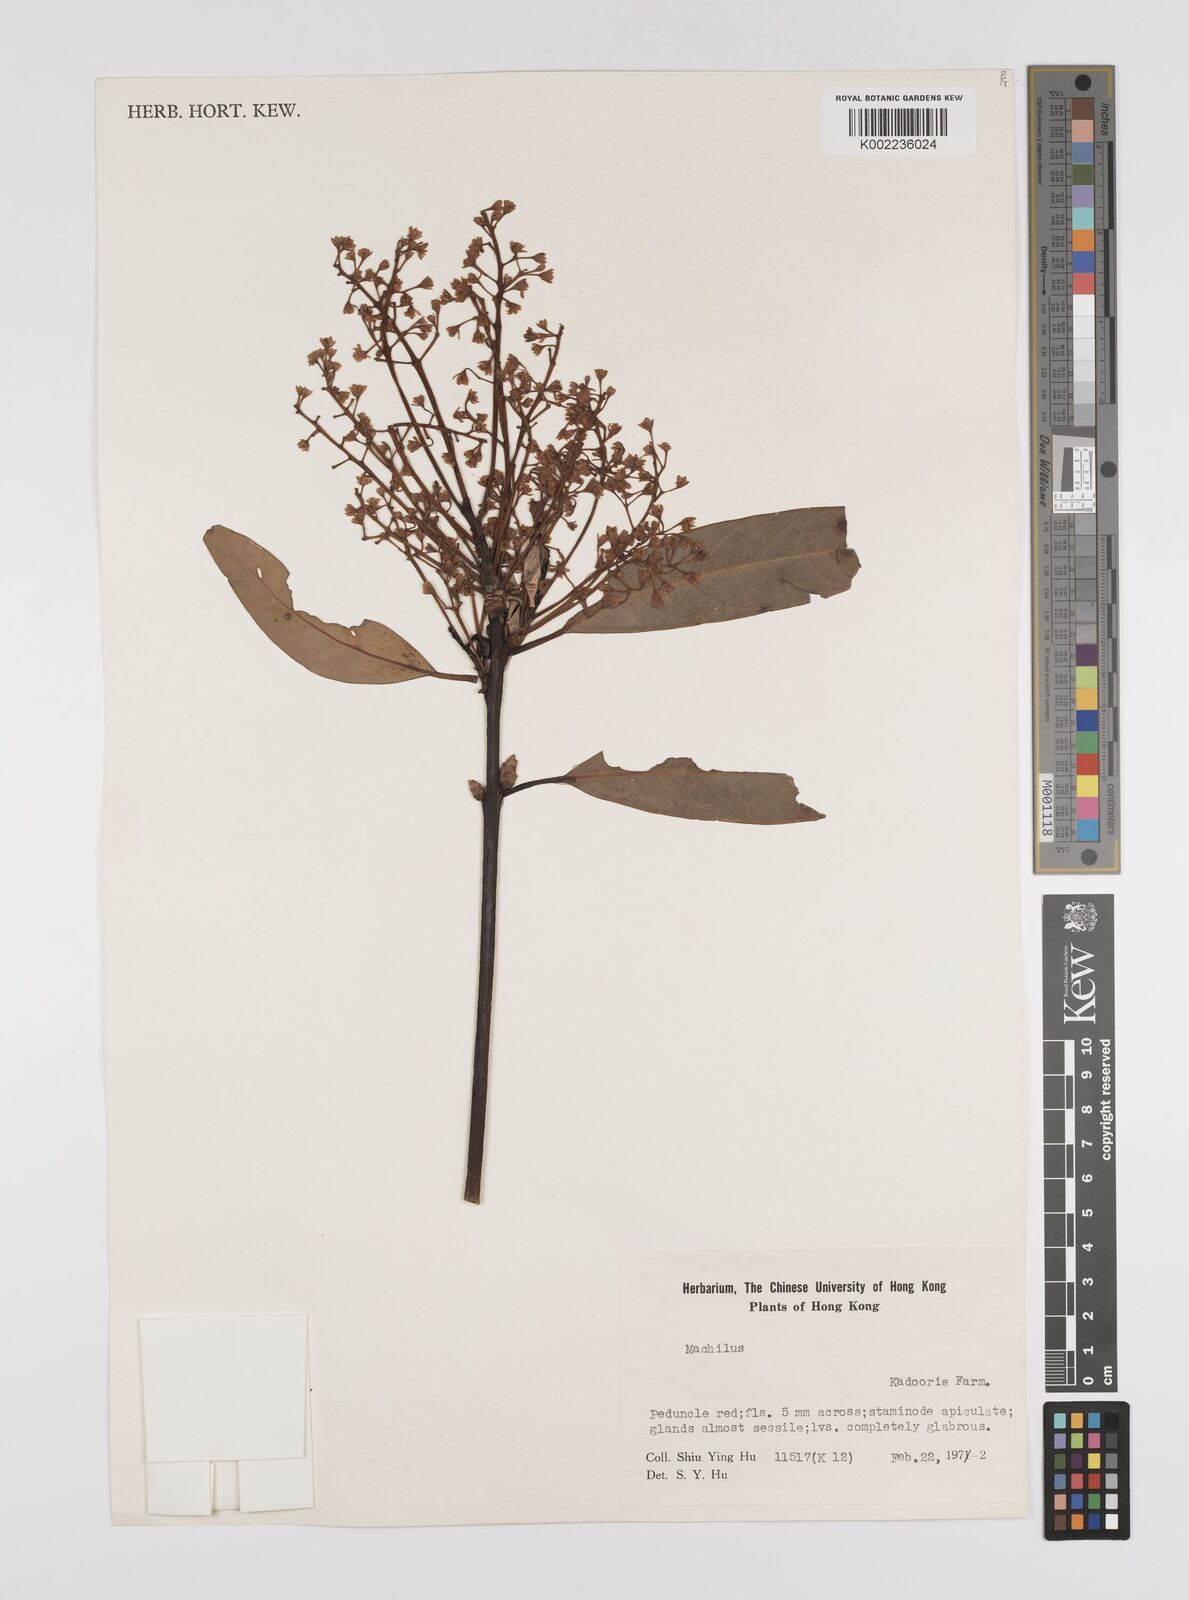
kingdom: Plantae
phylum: Tracheophyta
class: Magnoliopsida
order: Laurales
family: Lauraceae
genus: Persea
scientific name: Persea
